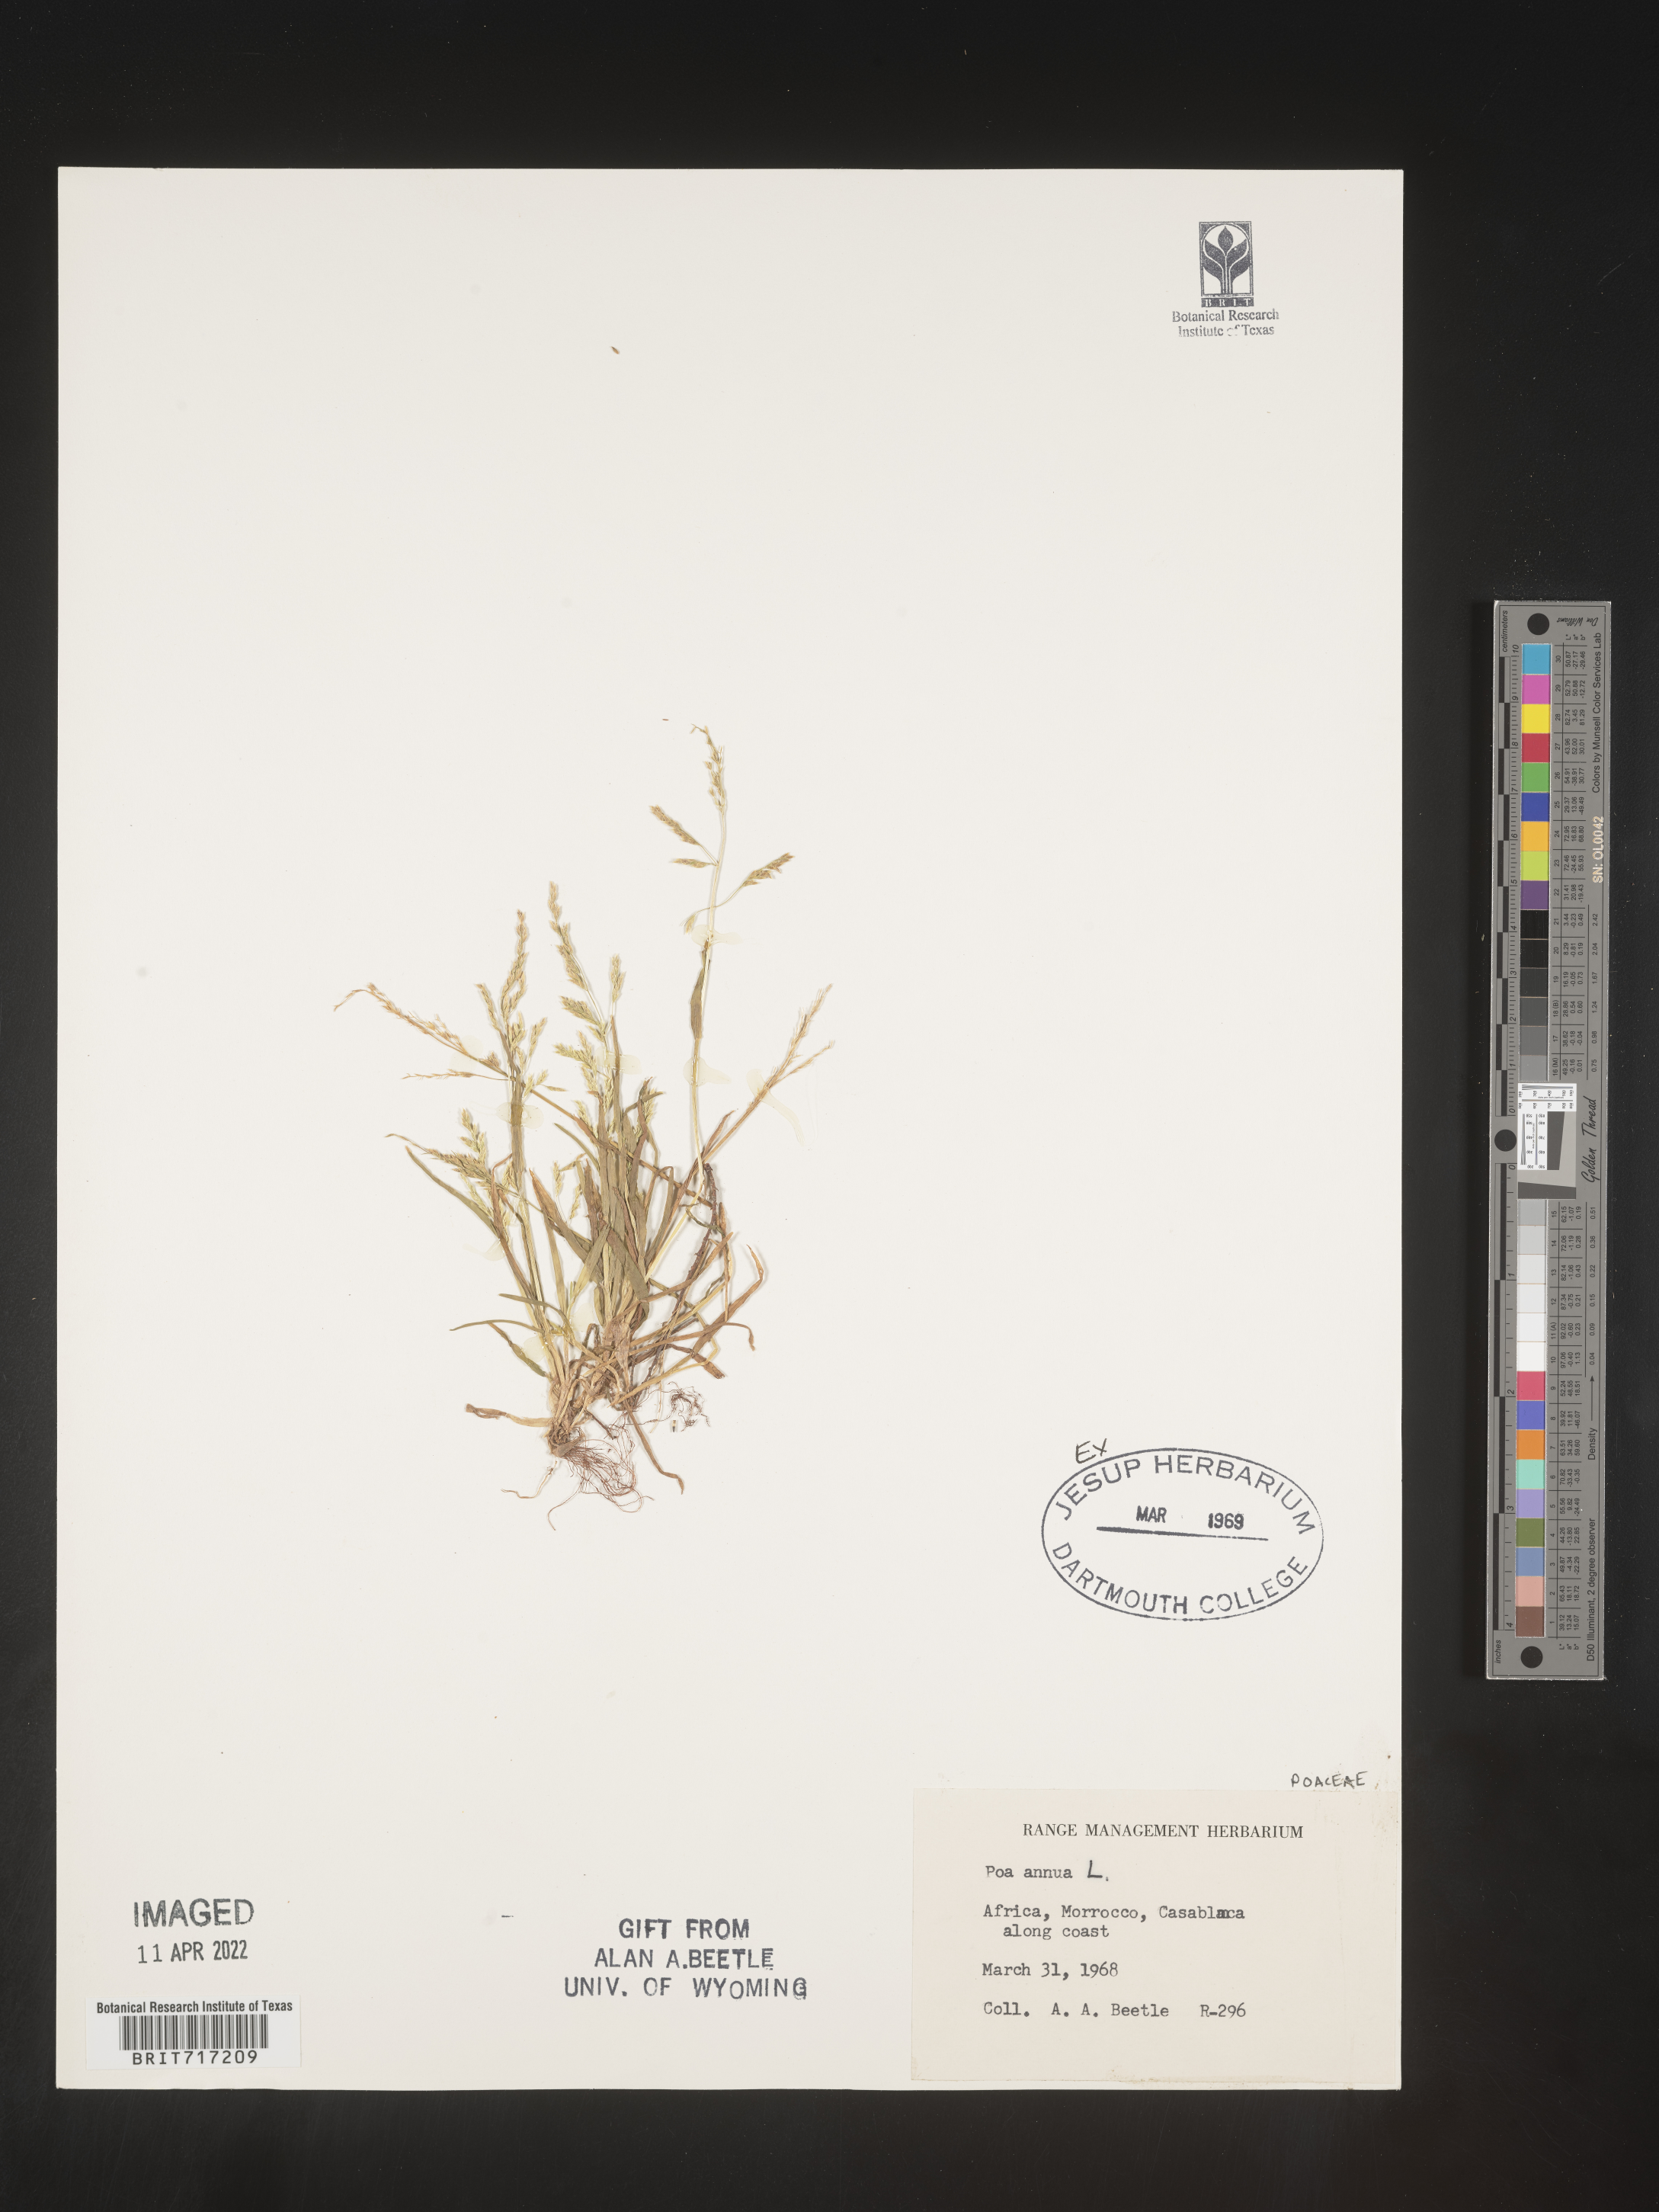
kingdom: Plantae
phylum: Tracheophyta
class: Liliopsida
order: Poales
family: Poaceae
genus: Poa
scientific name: Poa
